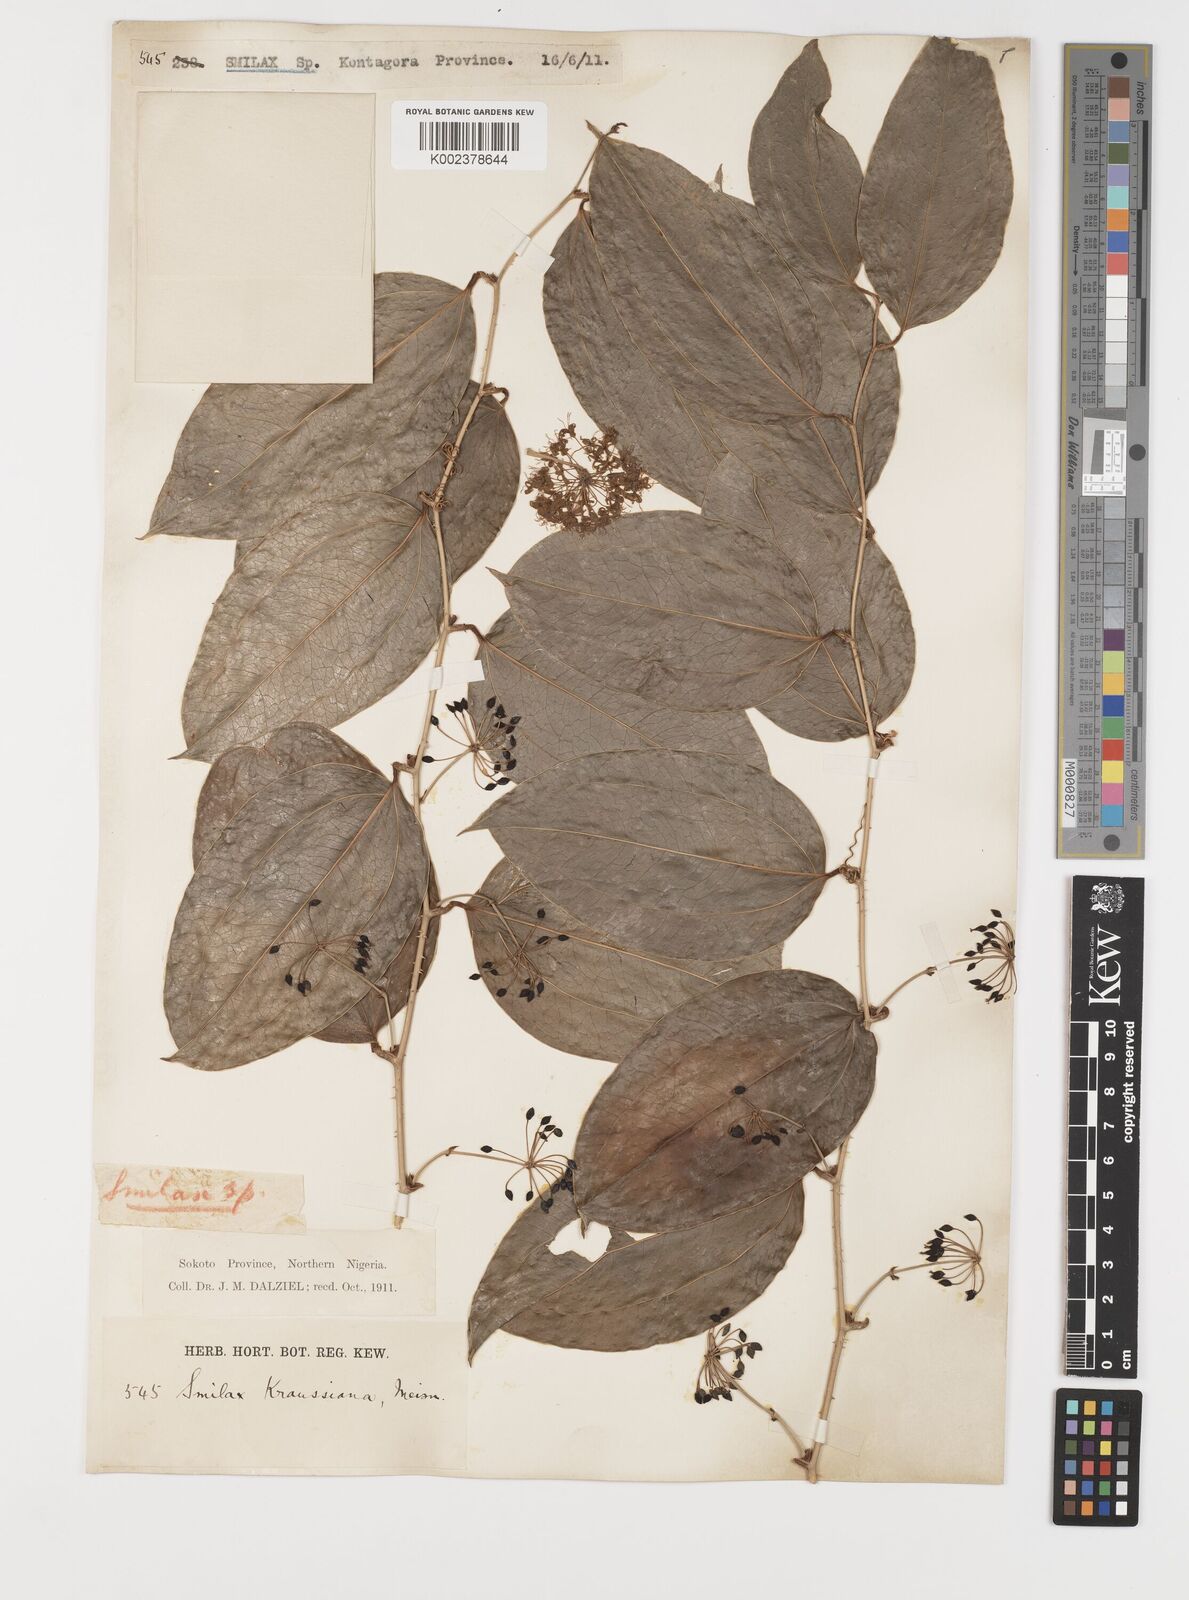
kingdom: Plantae
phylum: Tracheophyta
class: Liliopsida
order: Liliales
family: Smilacaceae
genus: Smilax
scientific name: Smilax anceps
